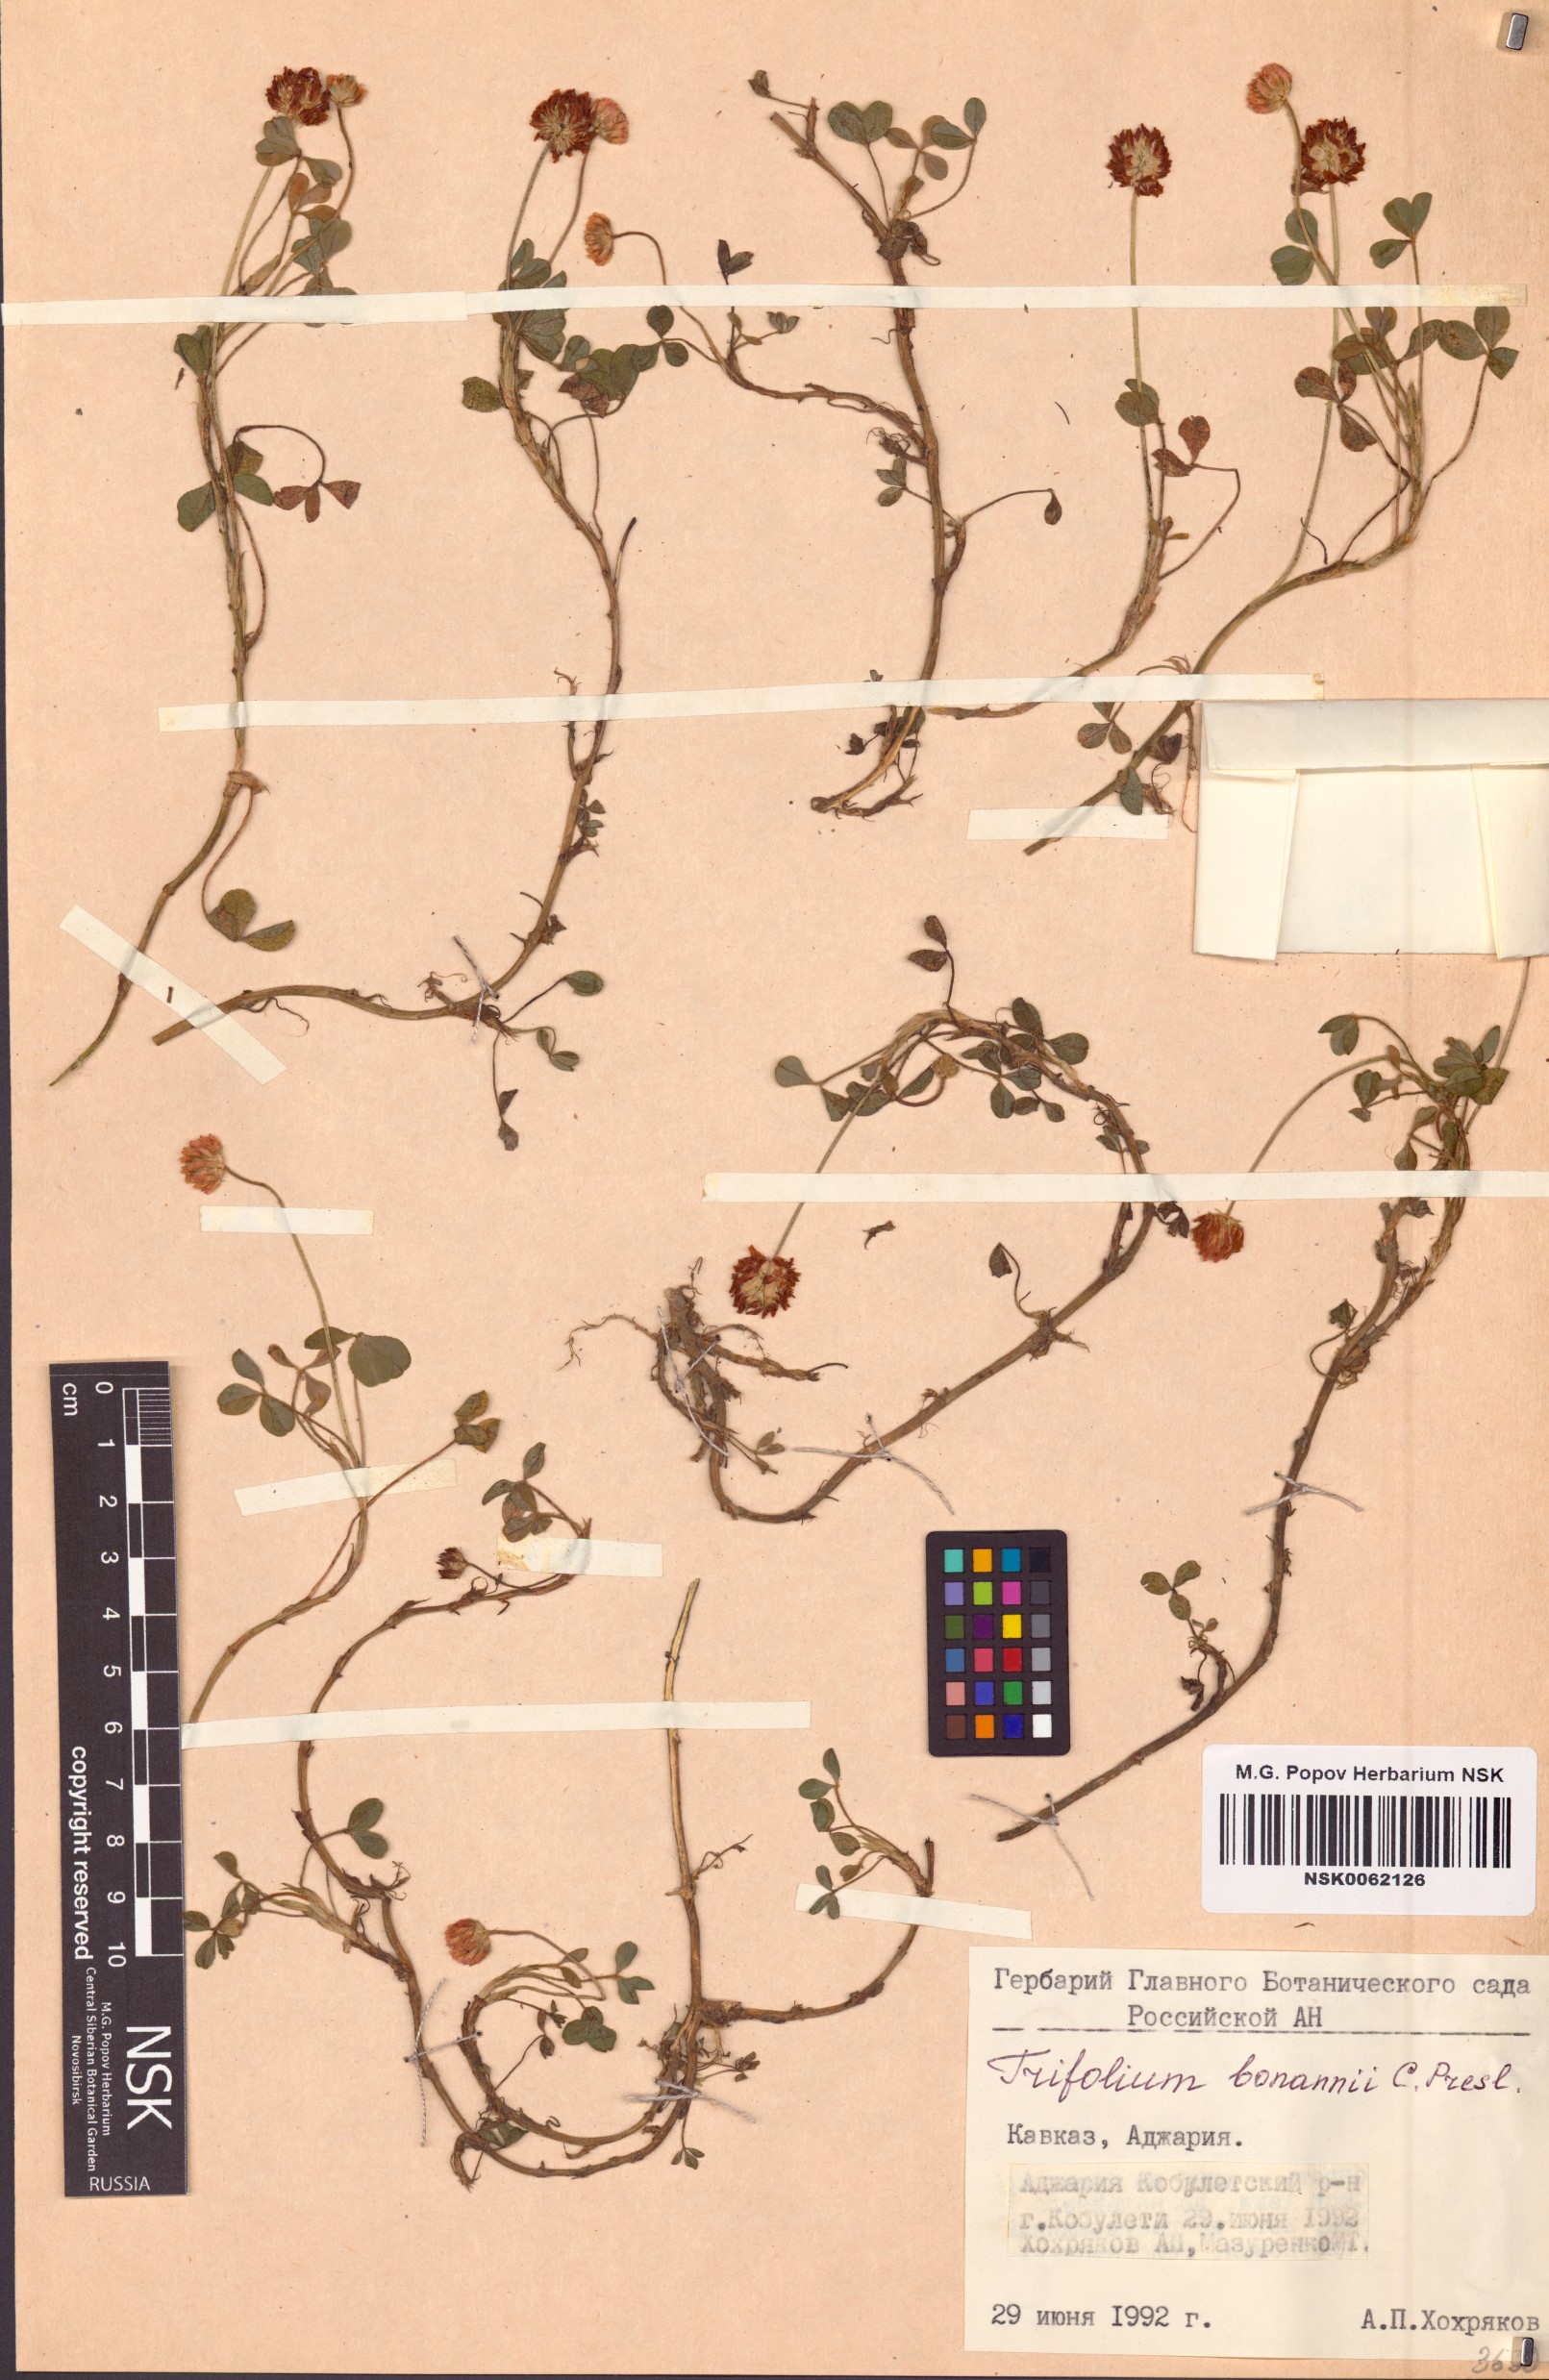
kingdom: Plantae
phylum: Tracheophyta
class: Magnoliopsida
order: Fabales
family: Fabaceae
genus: Trifolium
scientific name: Trifolium fragiferum
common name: Strawberry clover
